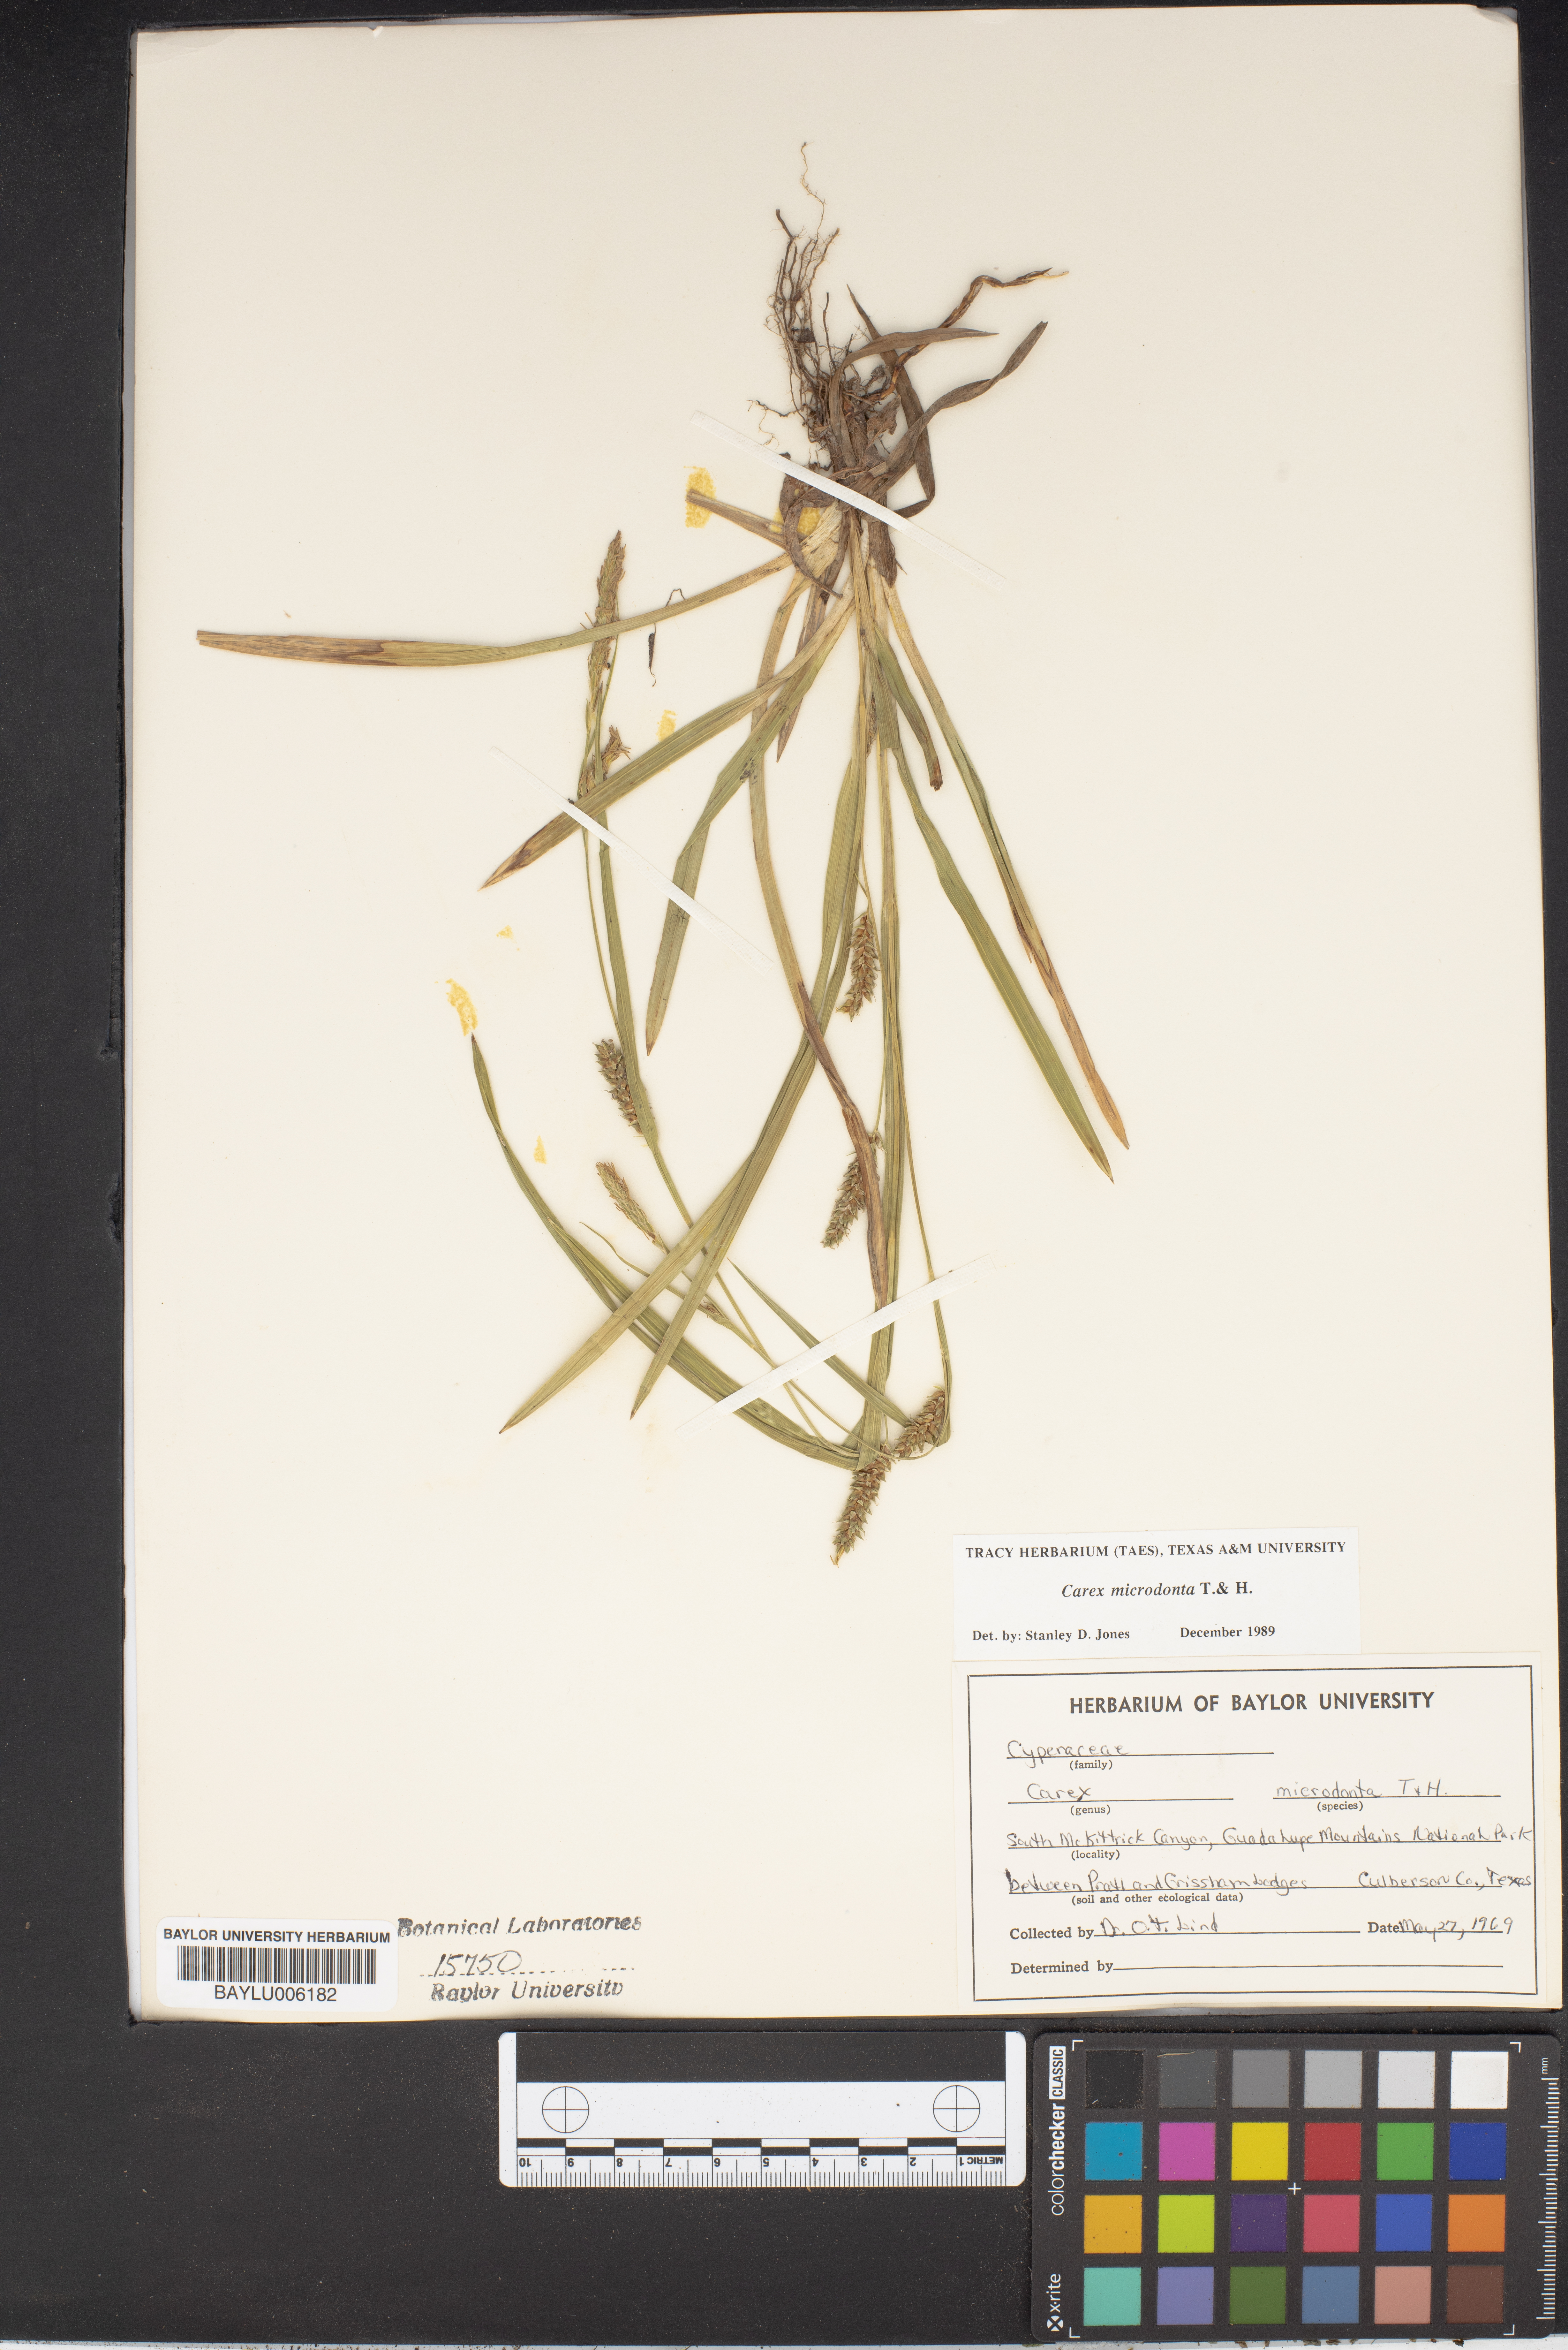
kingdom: Plantae
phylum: Tracheophyta
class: Liliopsida
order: Poales
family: Cyperaceae
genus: Carex
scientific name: Carex microdonta
